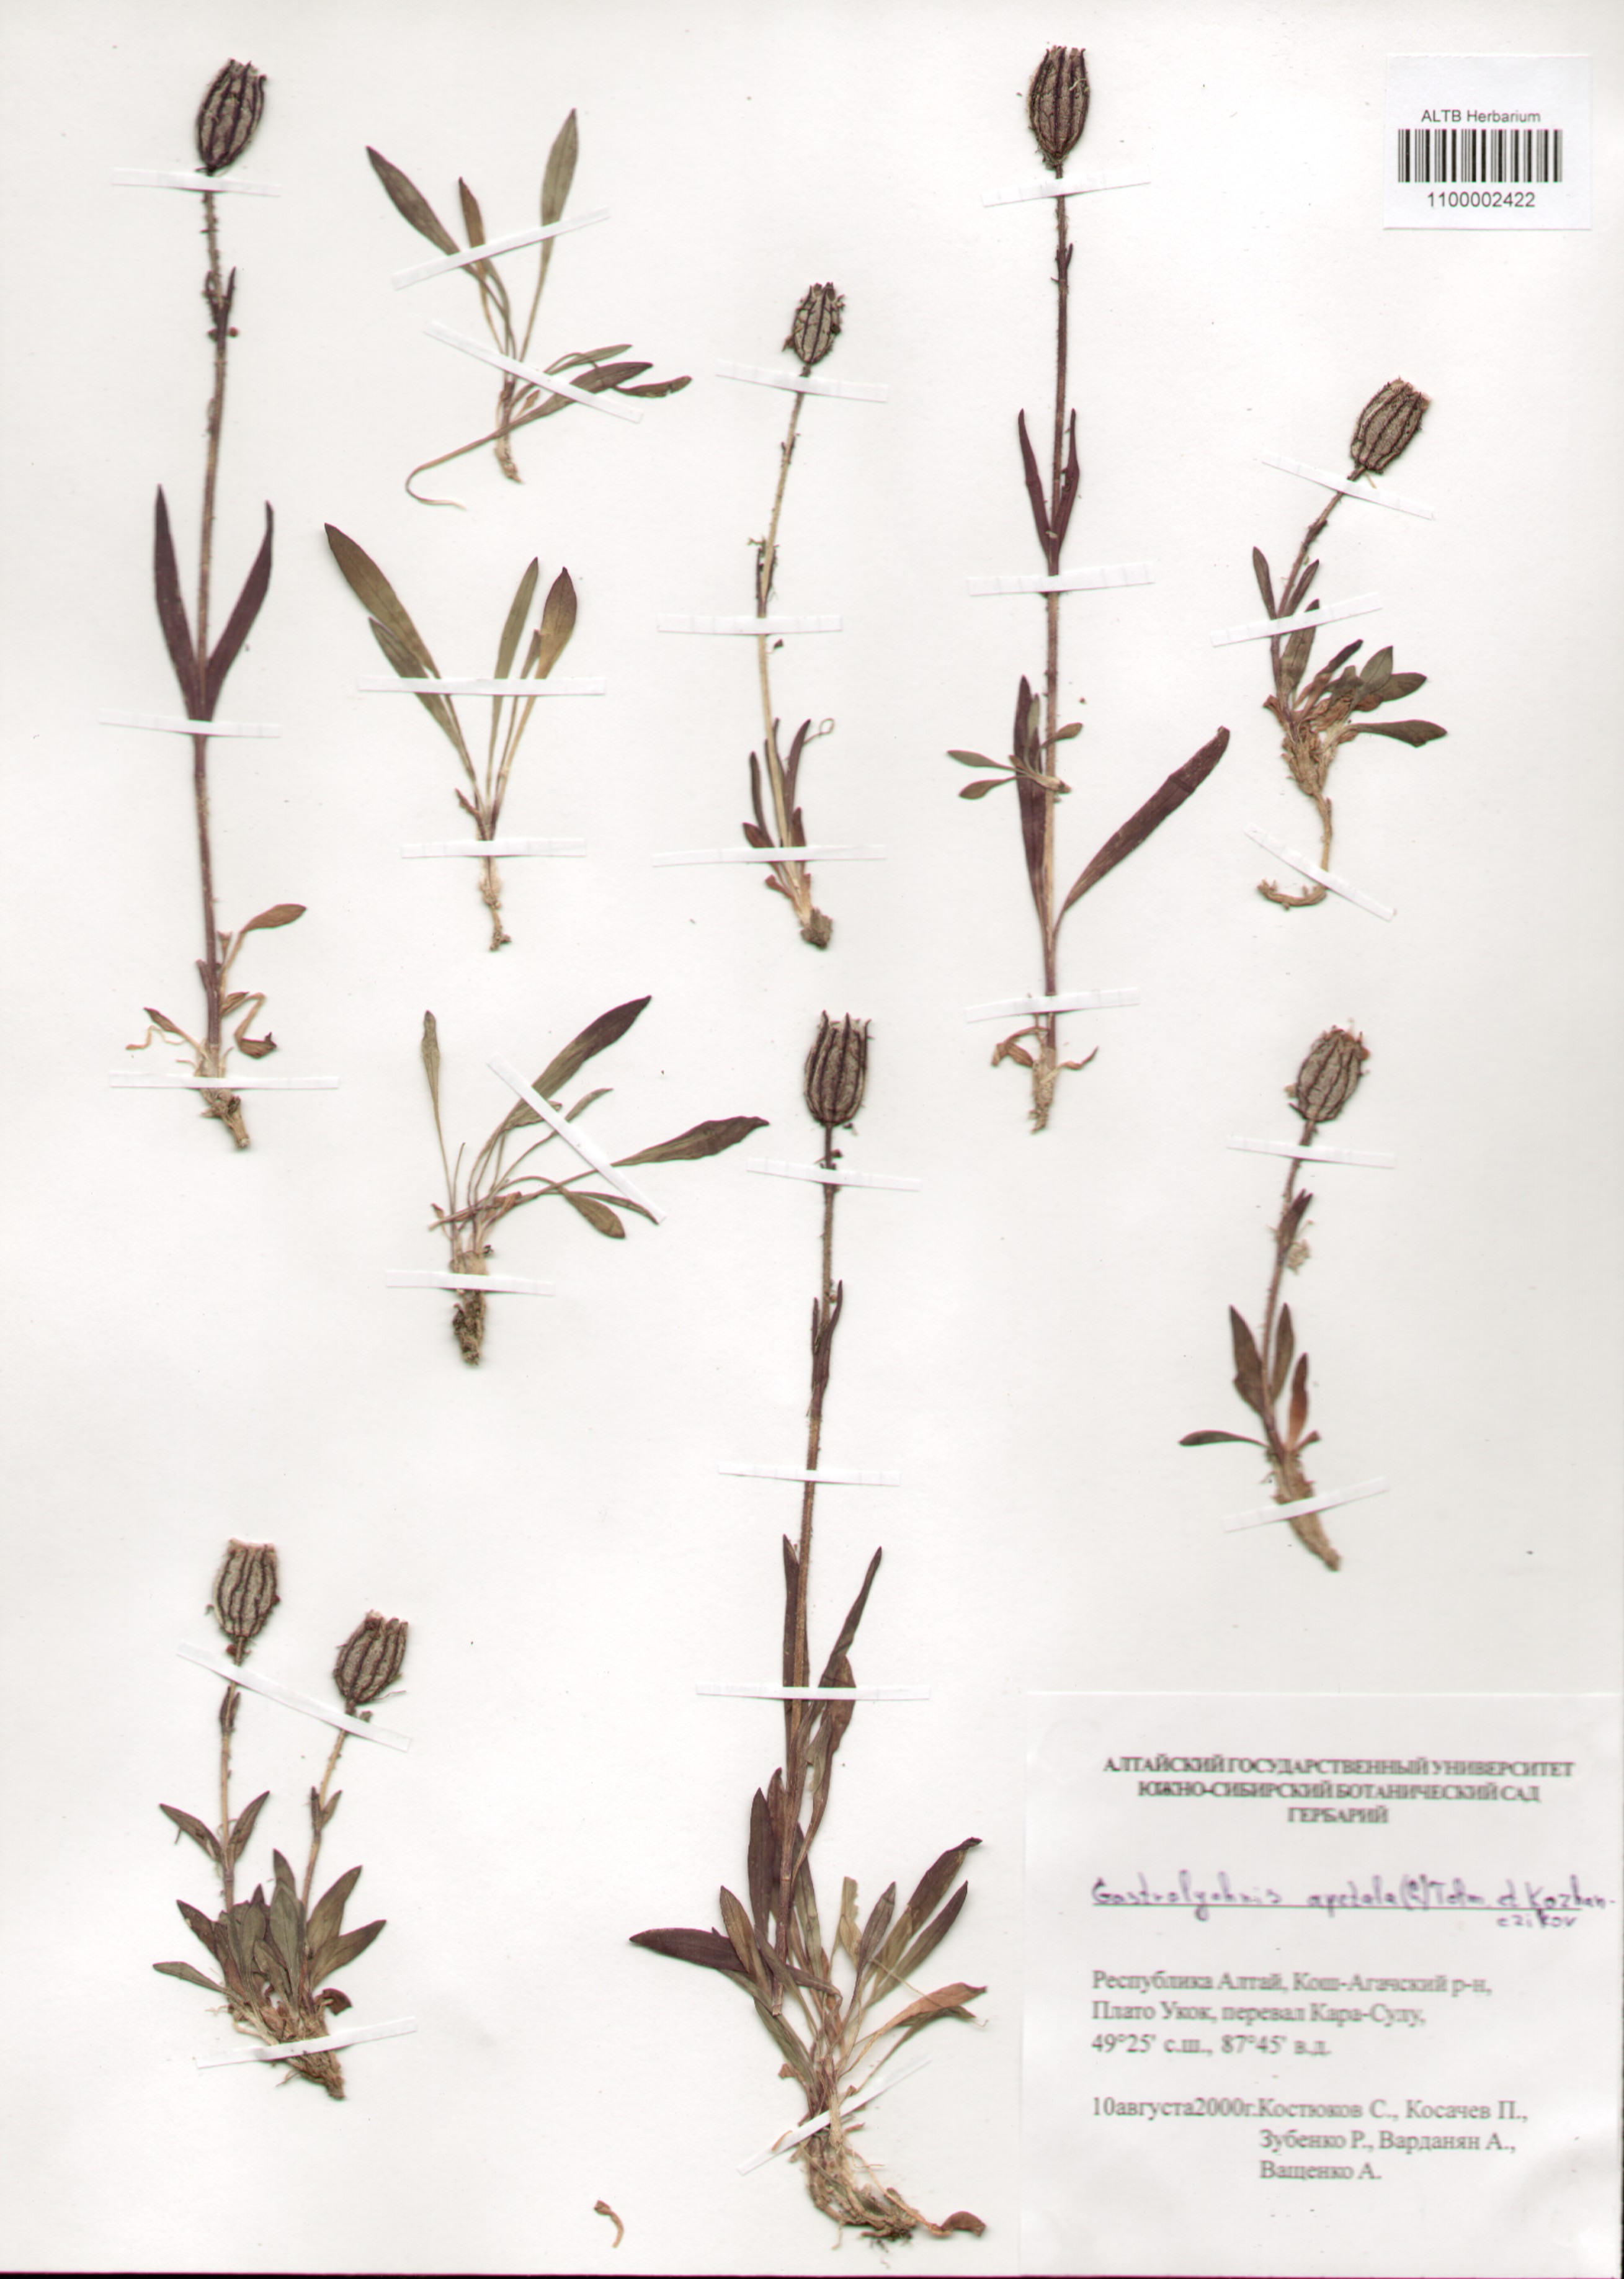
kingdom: Plantae
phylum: Tracheophyta
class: Magnoliopsida
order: Caryophyllales
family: Caryophyllaceae
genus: Silene
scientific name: Silene wahlbergella
